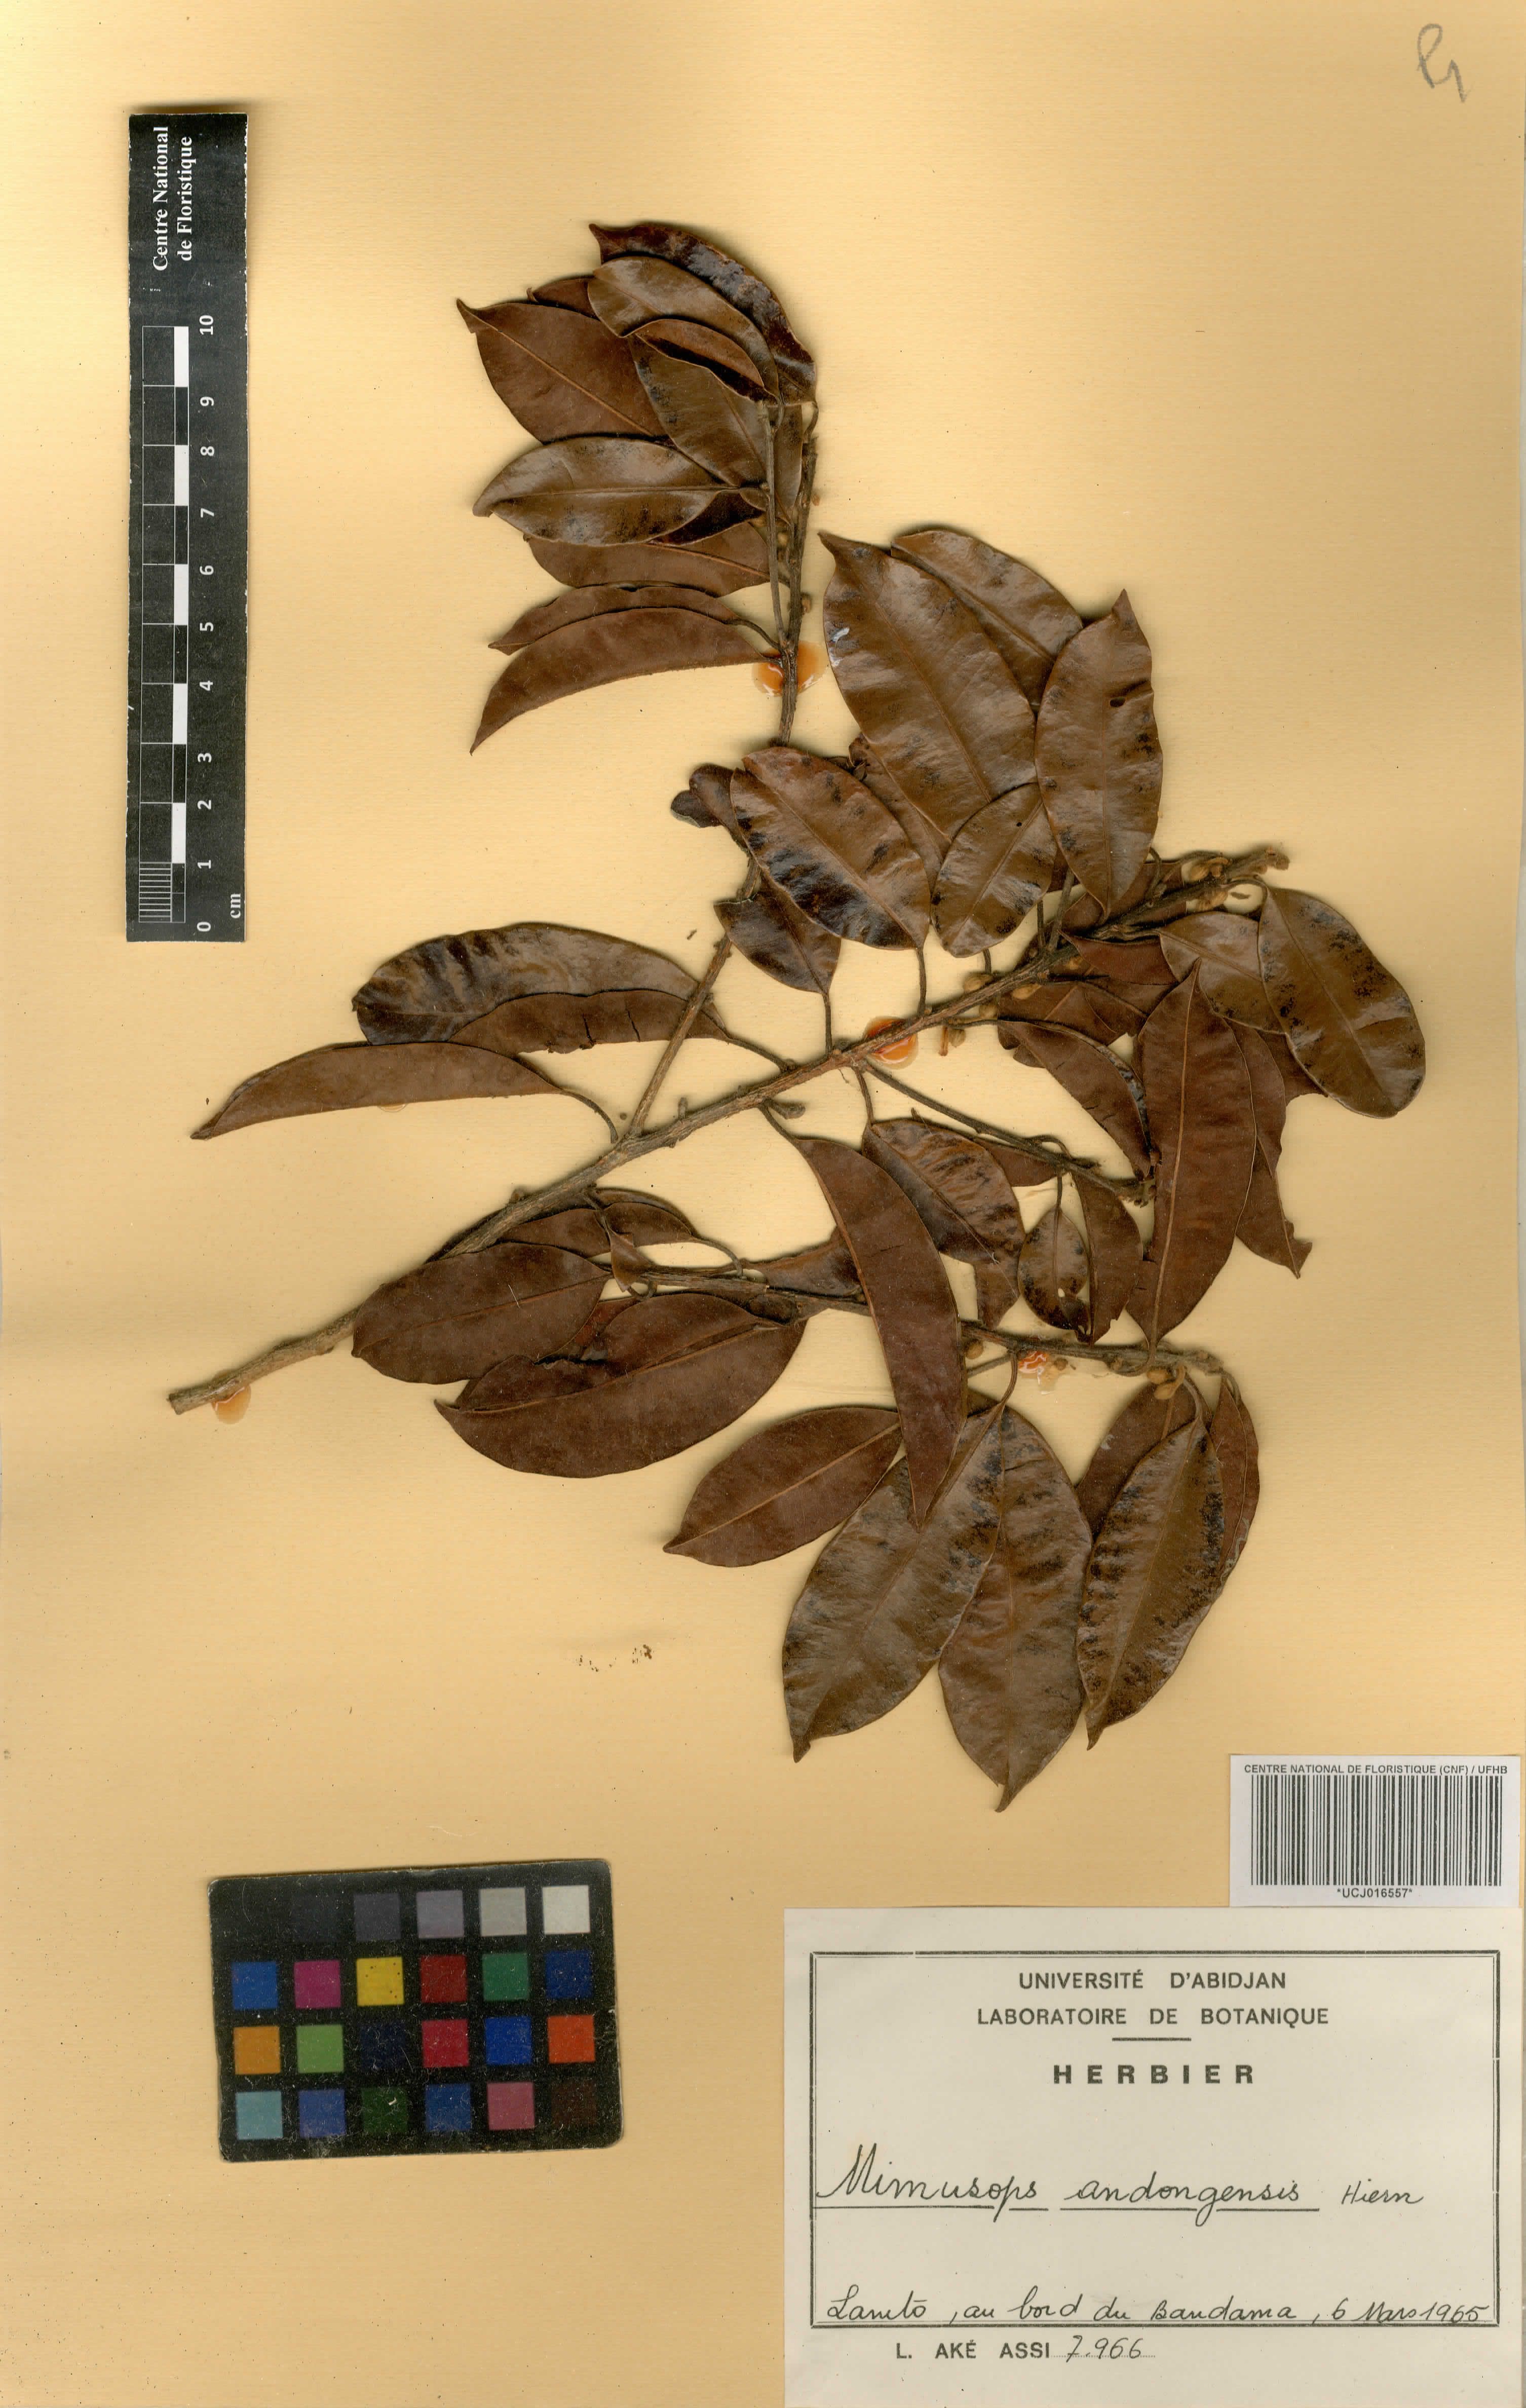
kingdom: Plantae
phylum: Tracheophyta
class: Magnoliopsida
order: Ericales
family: Sapotaceae
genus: Mimusops
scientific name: Mimusops andongensis
